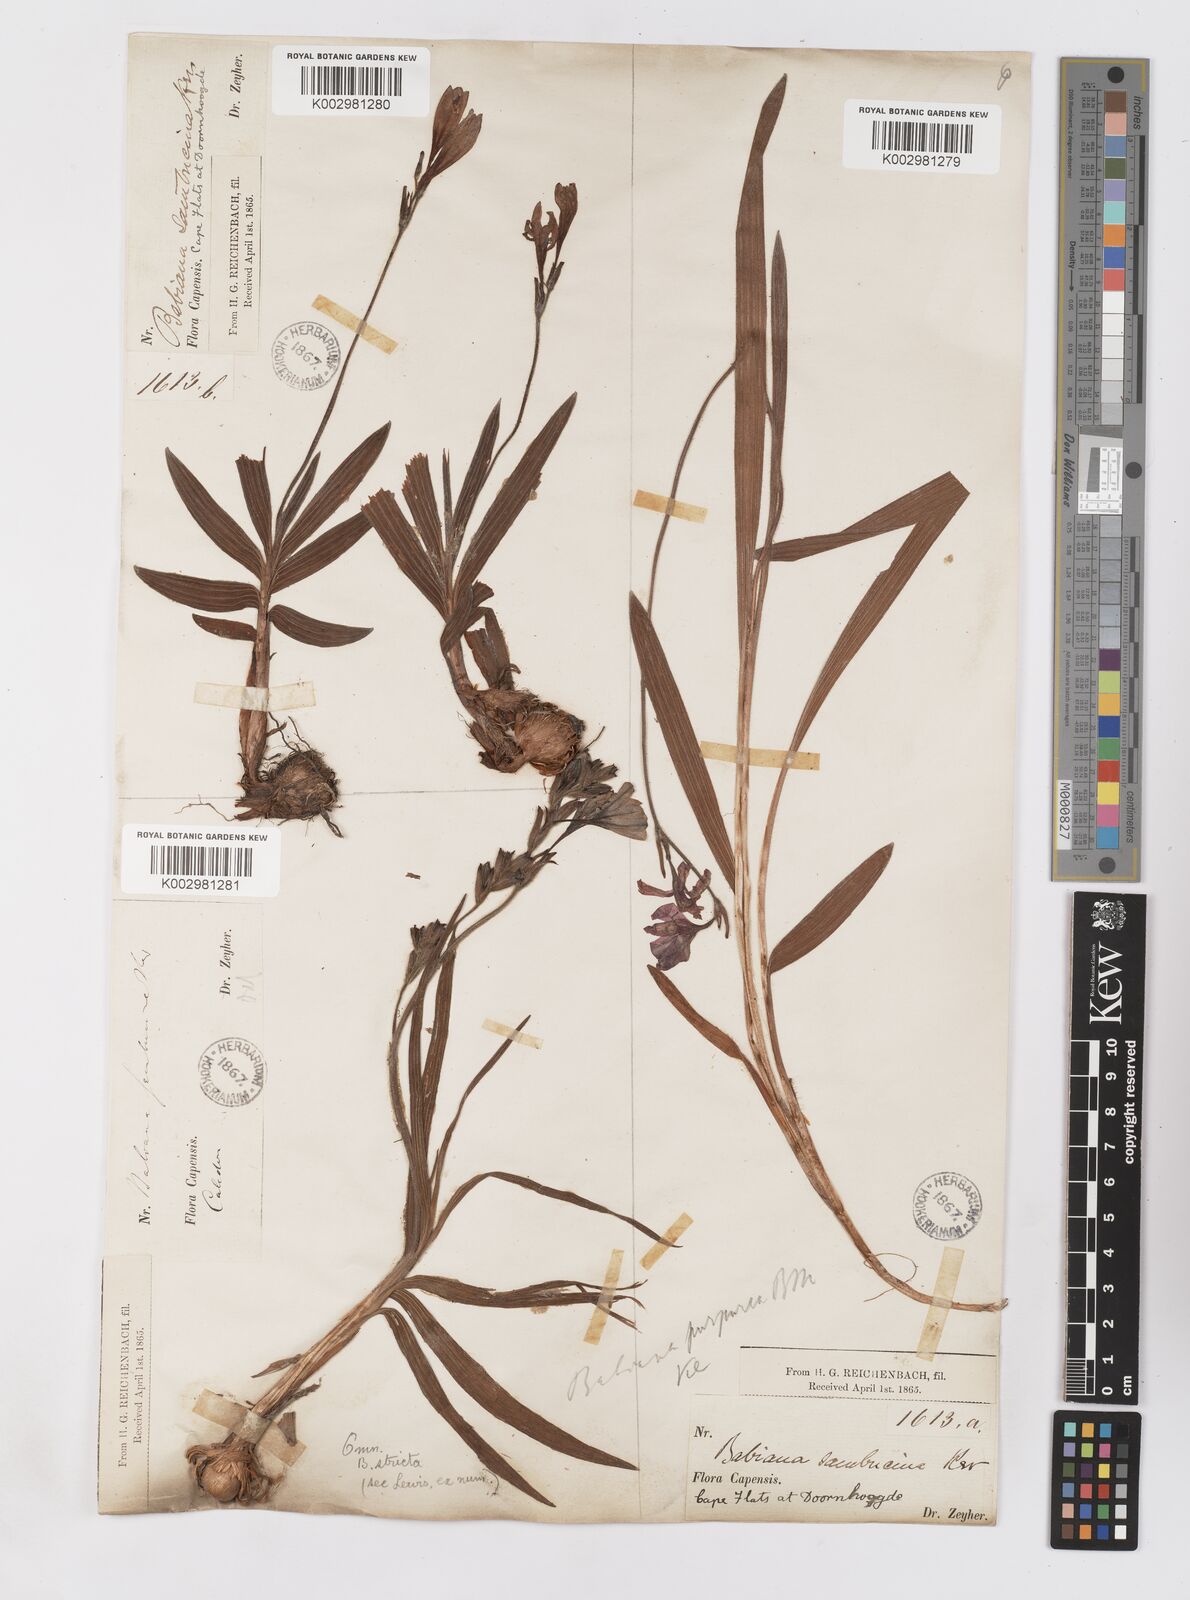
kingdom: Plantae
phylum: Tracheophyta
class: Liliopsida
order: Asparagales
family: Iridaceae
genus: Babiana
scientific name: Babiana regia
